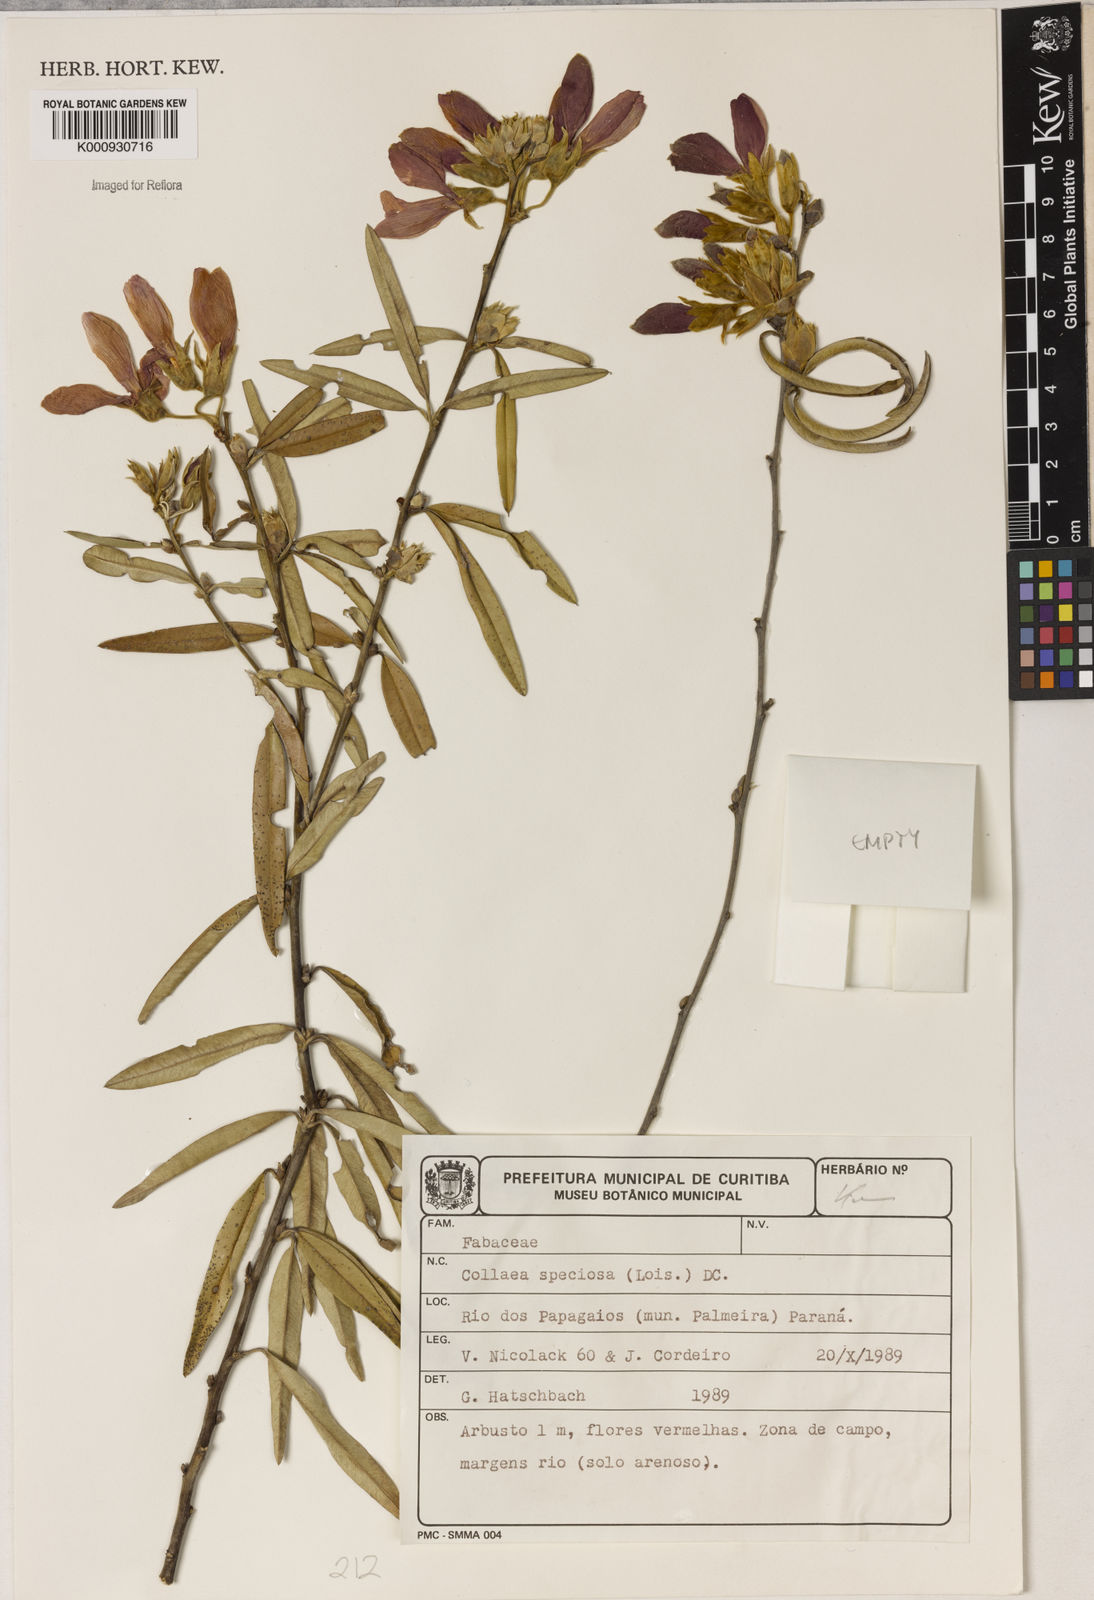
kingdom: Plantae
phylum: Tracheophyta
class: Magnoliopsida
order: Lamiales
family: Lamiaceae
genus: Coleus
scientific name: Coleus barbatus
